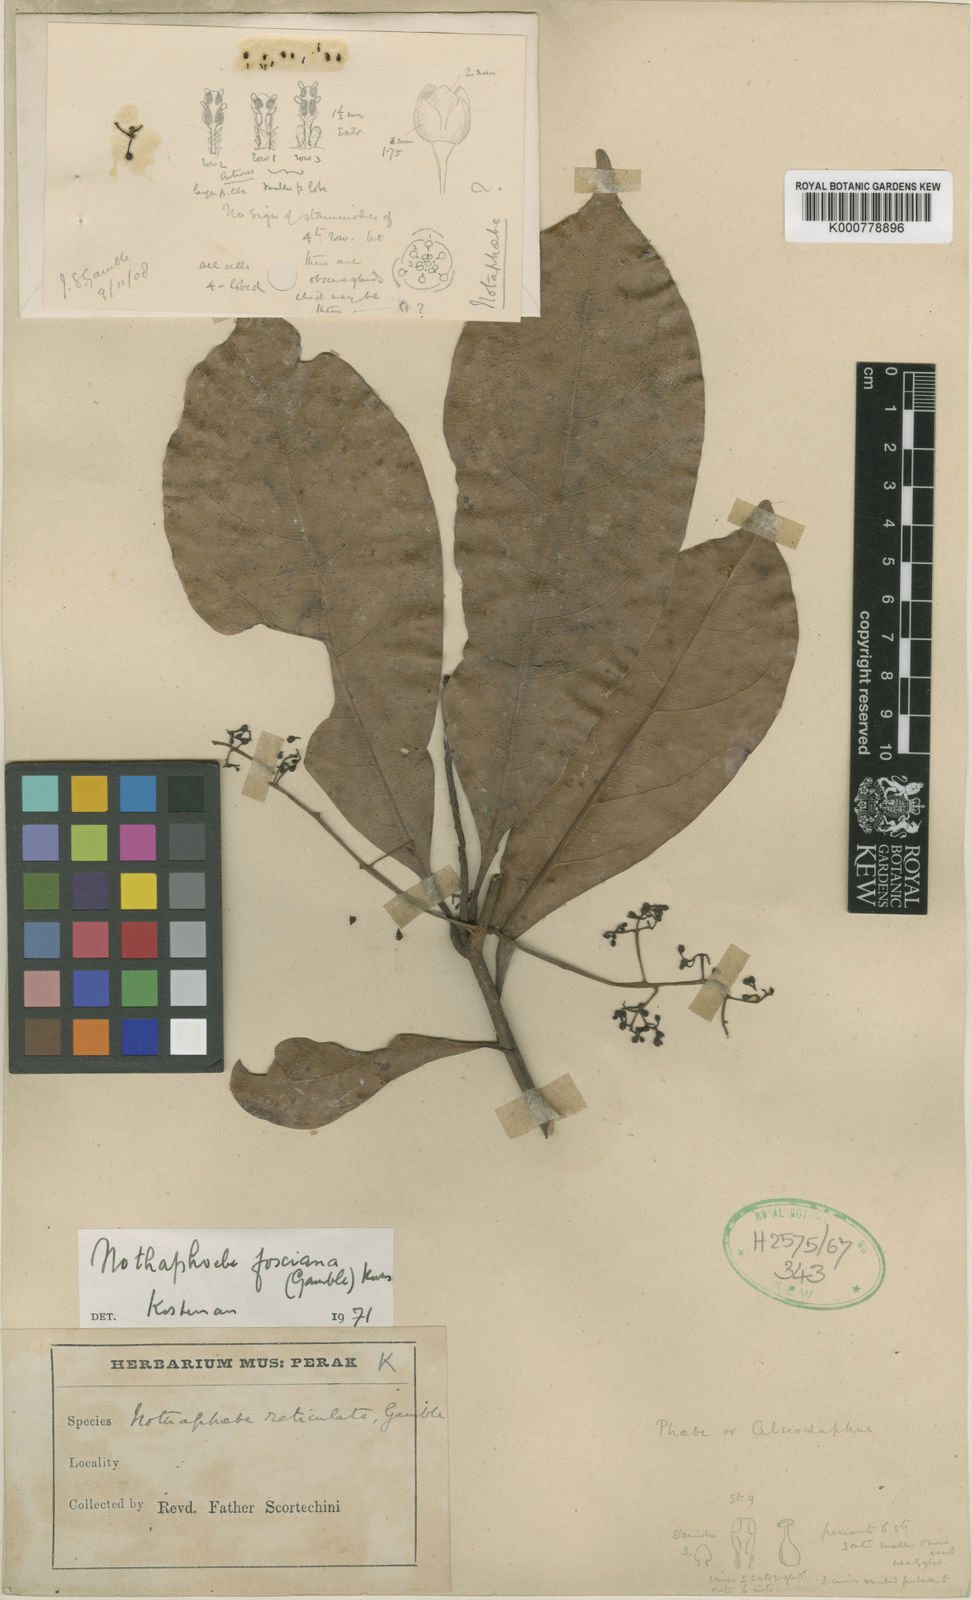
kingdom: Plantae
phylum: Tracheophyta
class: Magnoliopsida
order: Laurales
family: Lauraceae
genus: Nothaphoebe
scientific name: Nothaphoebe
